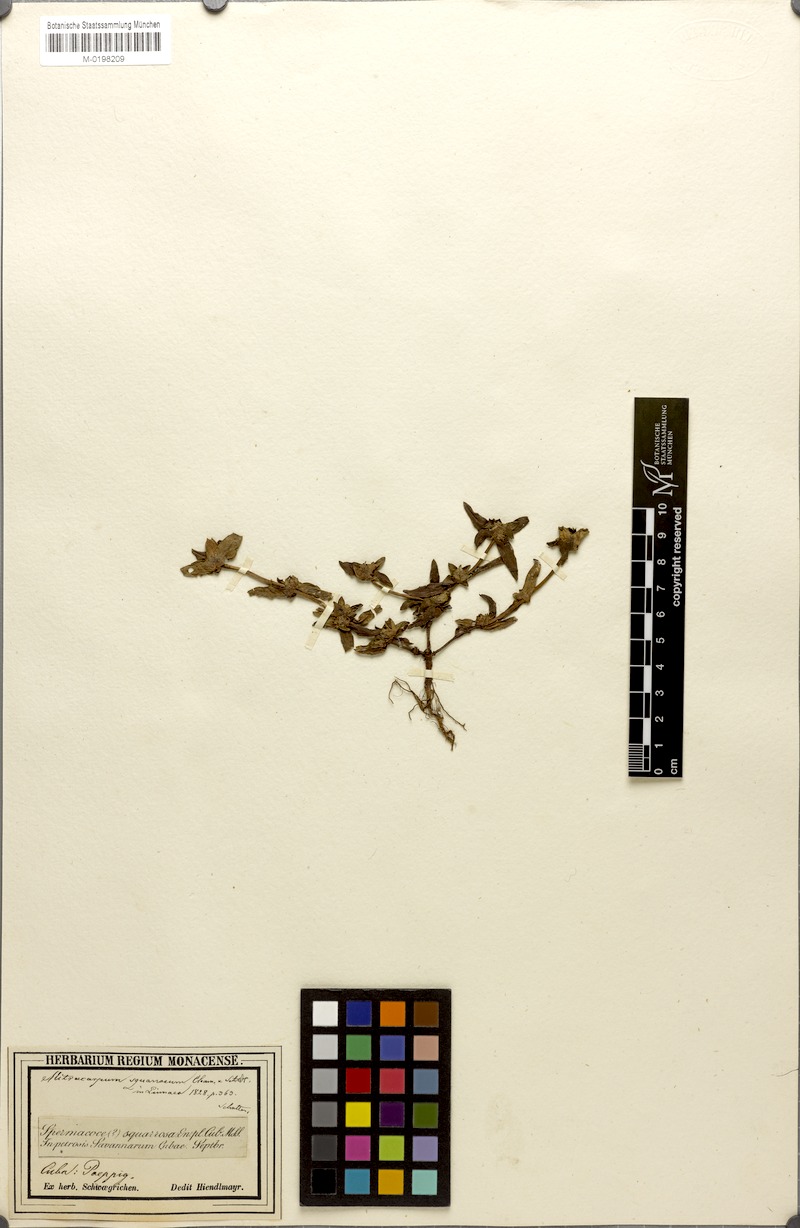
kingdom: Plantae
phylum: Tracheophyta
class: Magnoliopsida
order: Gentianales
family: Rubiaceae
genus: Mitracarpus
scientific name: Mitracarpus squarrosus
